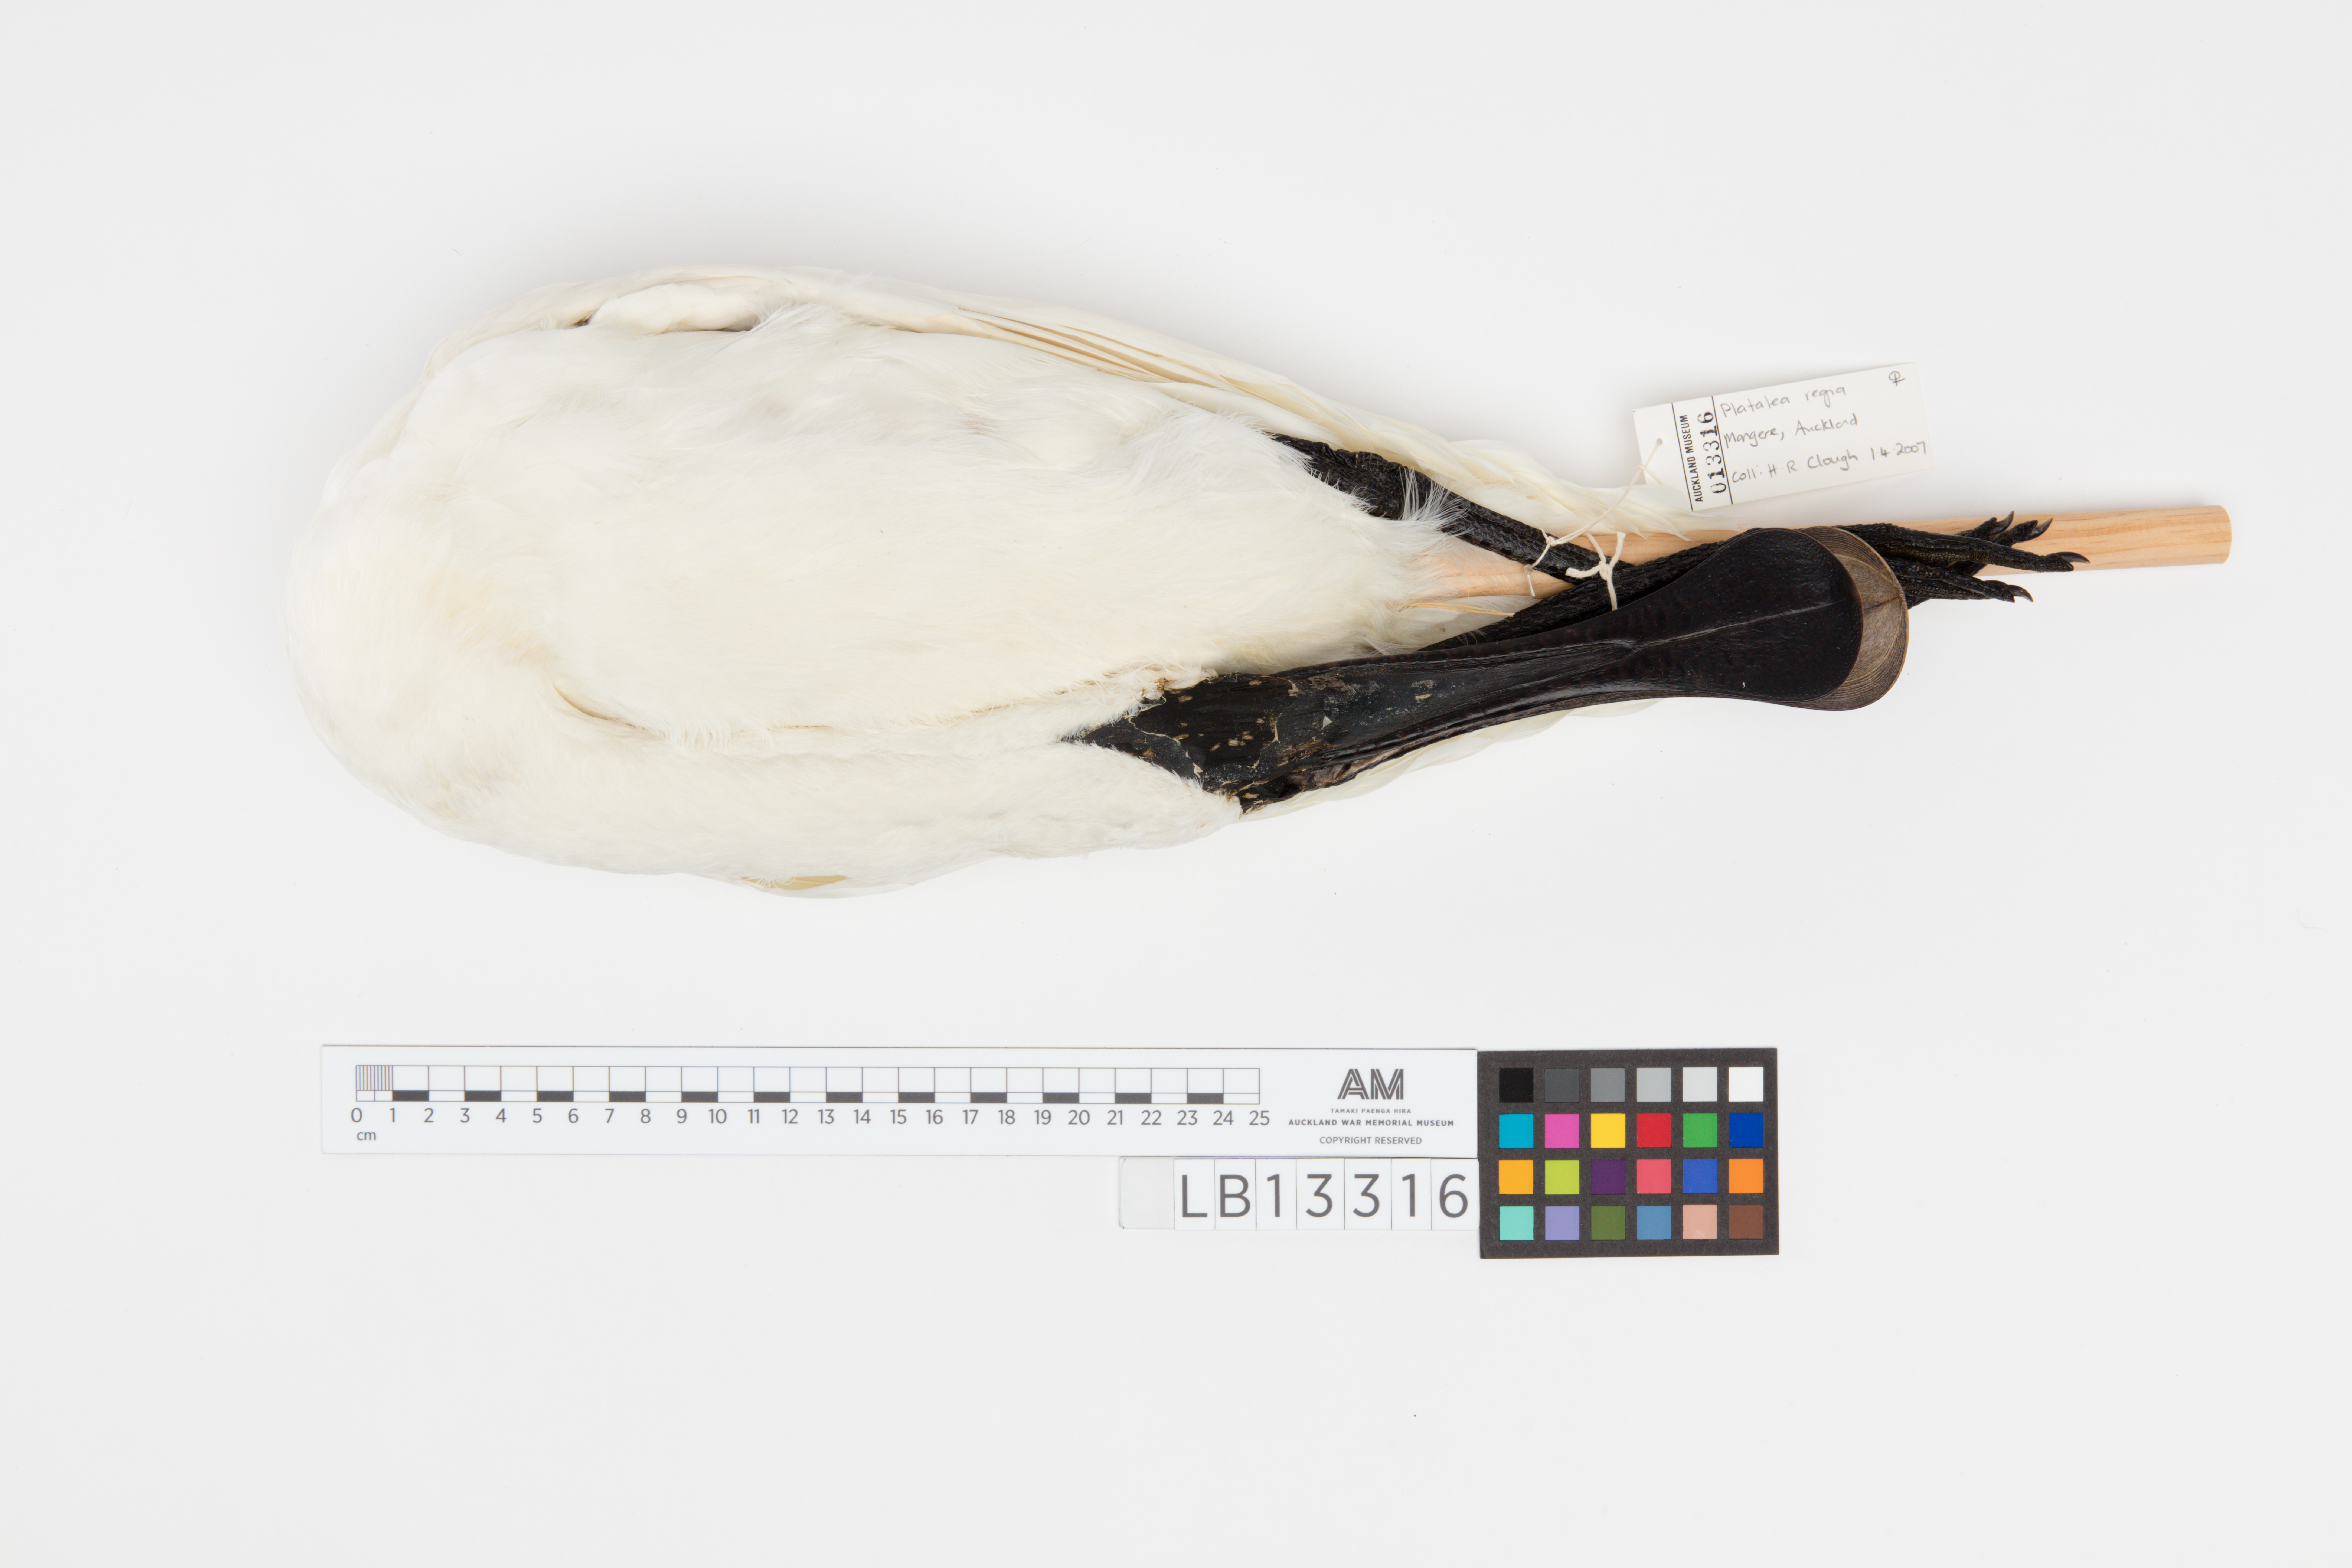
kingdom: Animalia
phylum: Chordata
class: Aves
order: Pelecaniformes
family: Threskiornithidae
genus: Platalea
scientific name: Platalea regia
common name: Royal spoonbill
